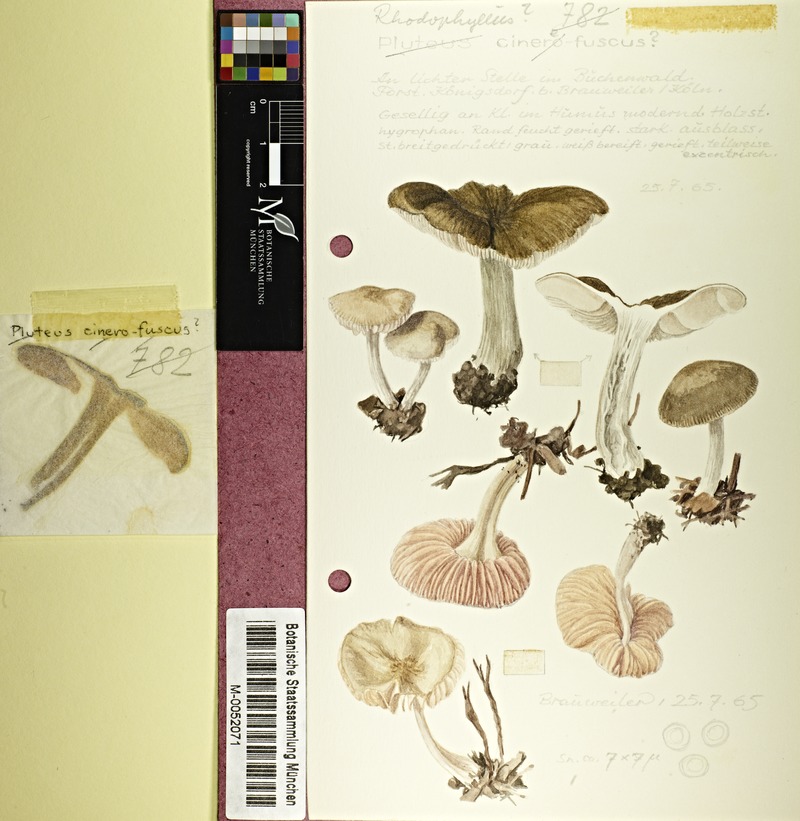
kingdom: Fungi
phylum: Basidiomycota
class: Agaricomycetes
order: Agaricales
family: Entolomataceae
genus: Entoloma
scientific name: Entoloma
